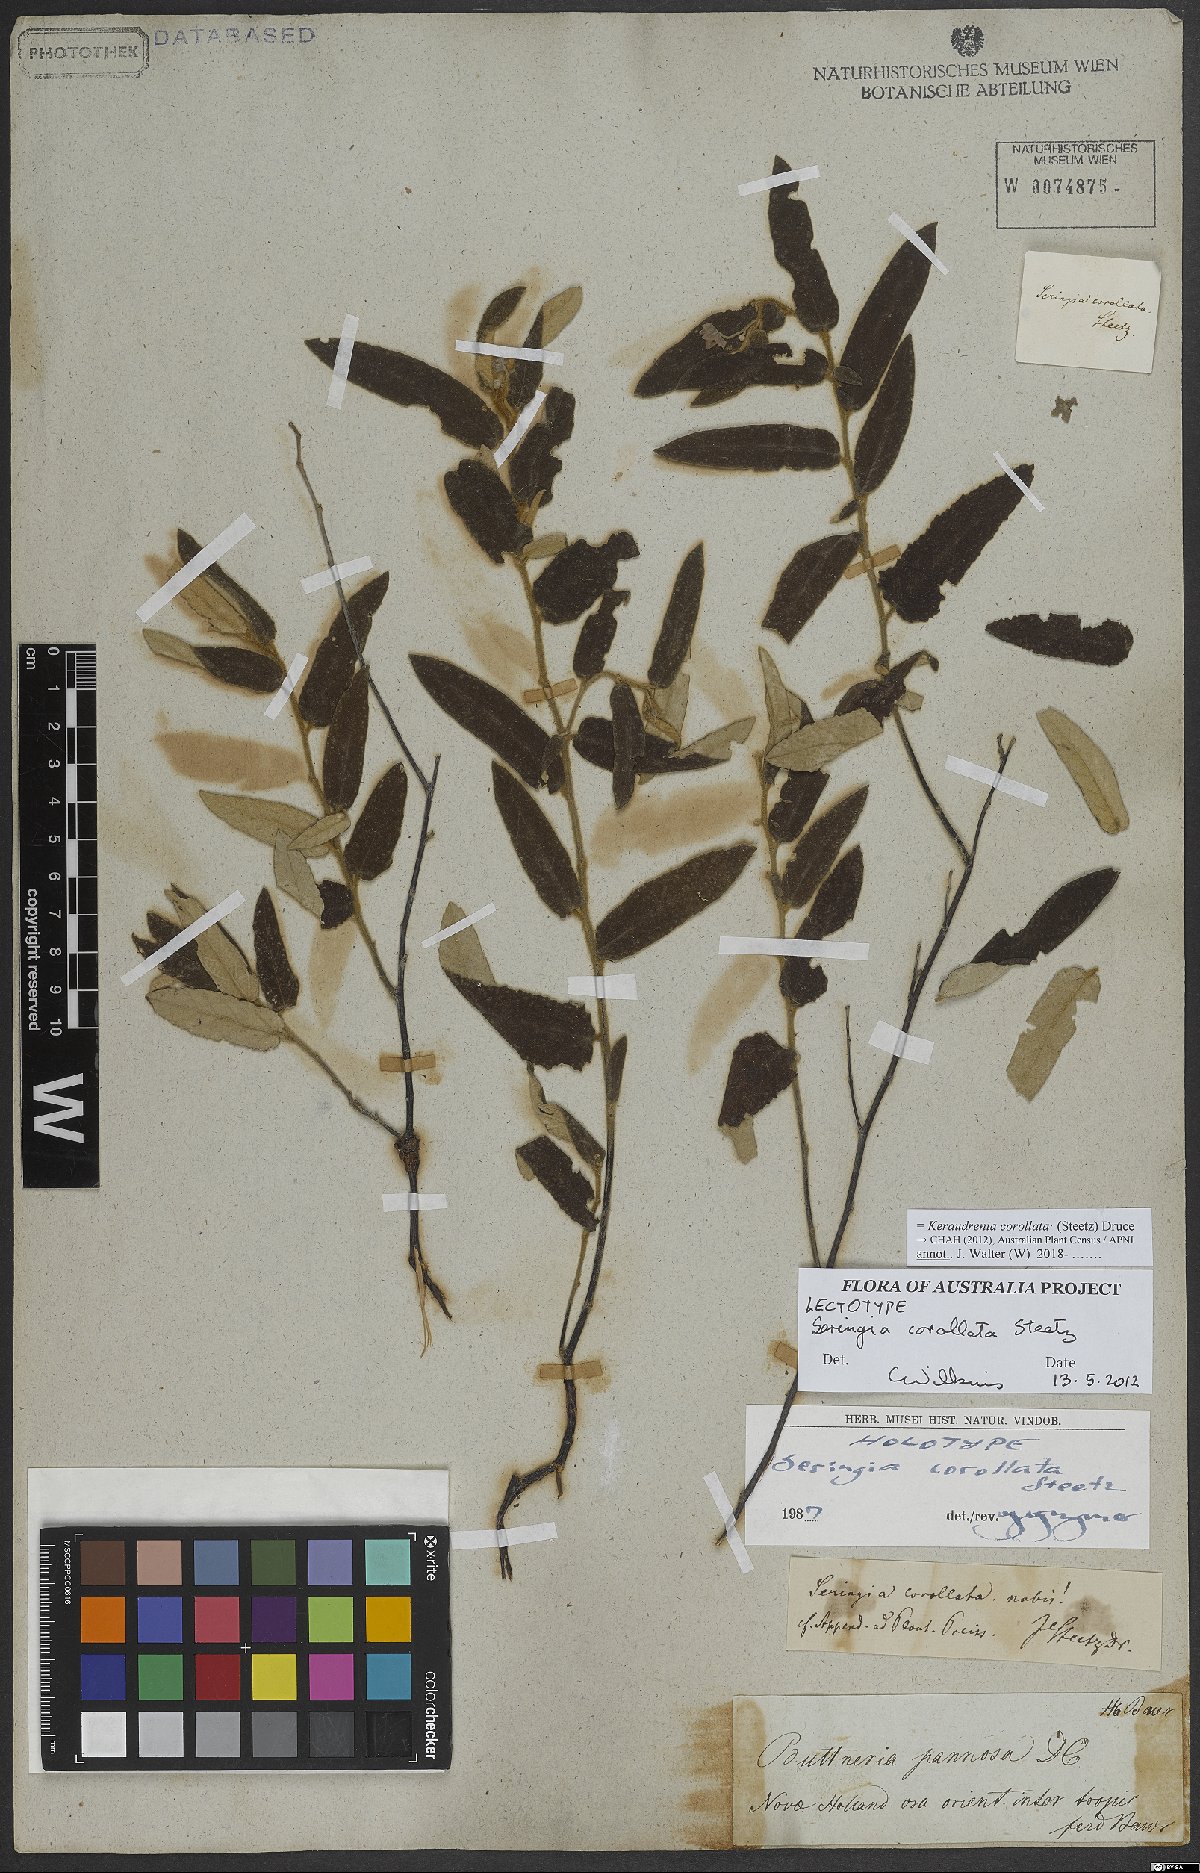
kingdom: Plantae
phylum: Tracheophyta
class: Magnoliopsida
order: Malvales
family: Malvaceae
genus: Seringia
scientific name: Seringia corollata
